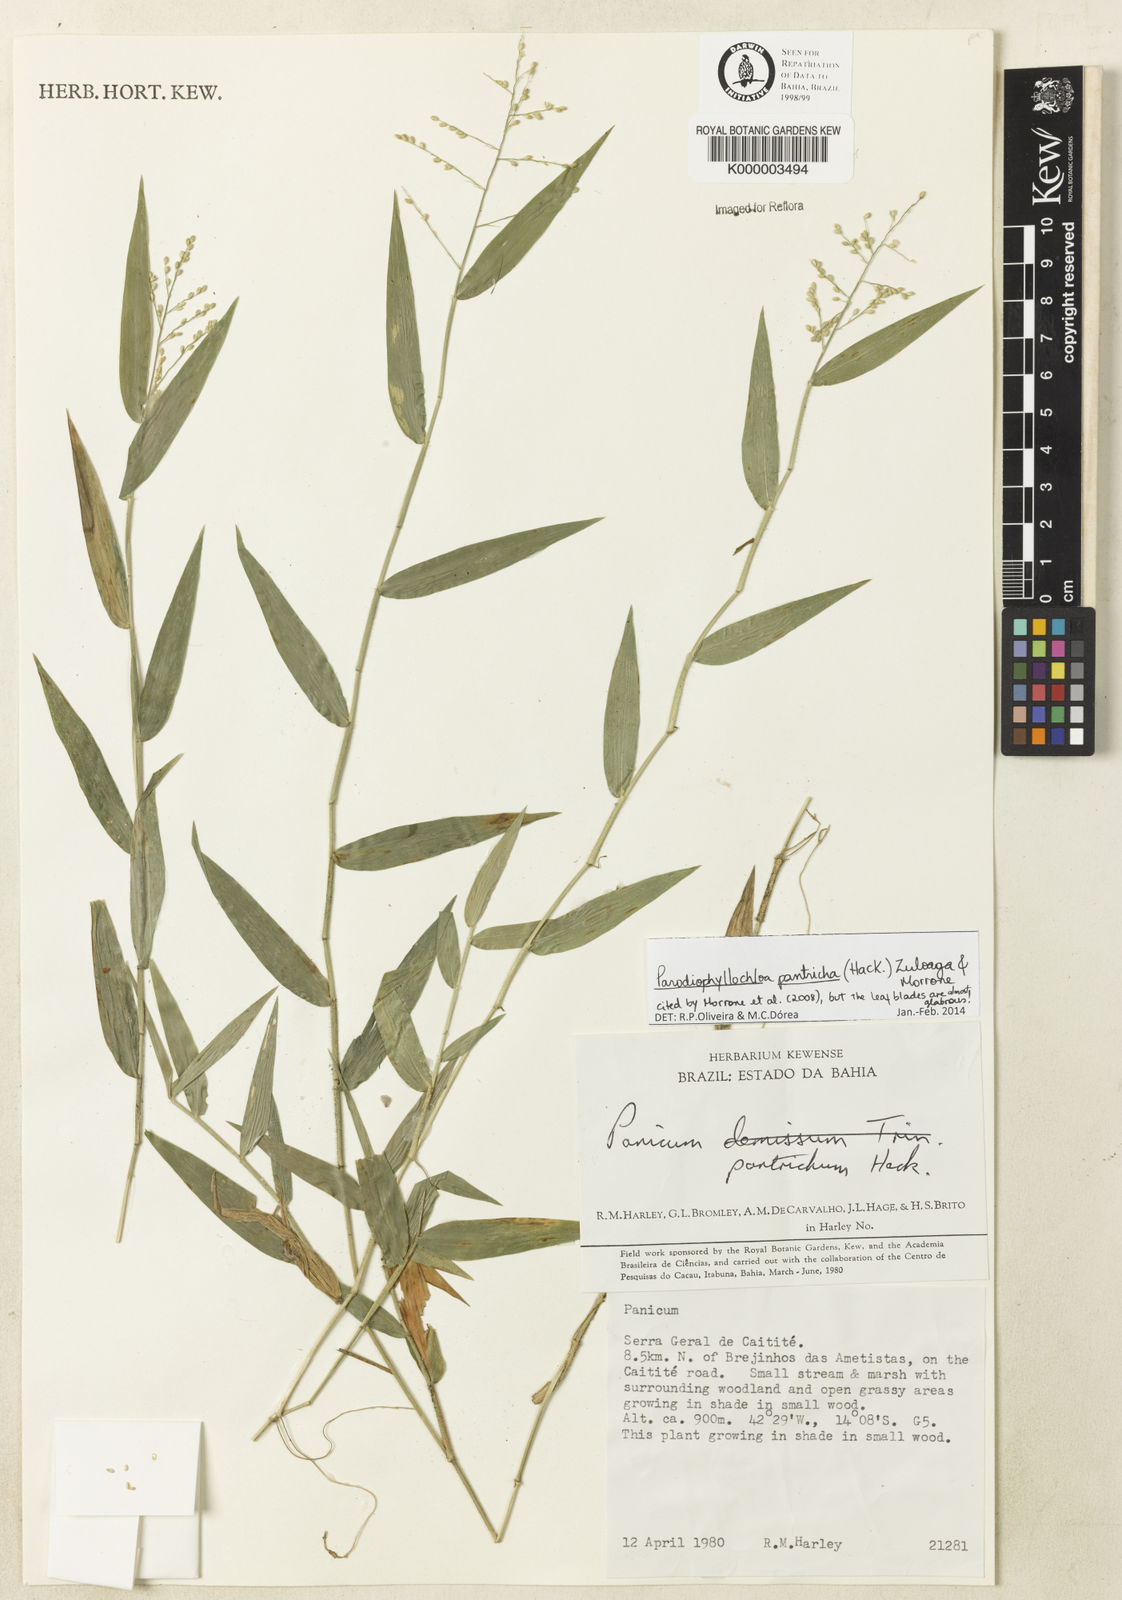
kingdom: Plantae
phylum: Tracheophyta
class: Liliopsida
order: Poales
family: Poaceae
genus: Parodiophyllochloa
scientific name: Parodiophyllochloa pantricha
